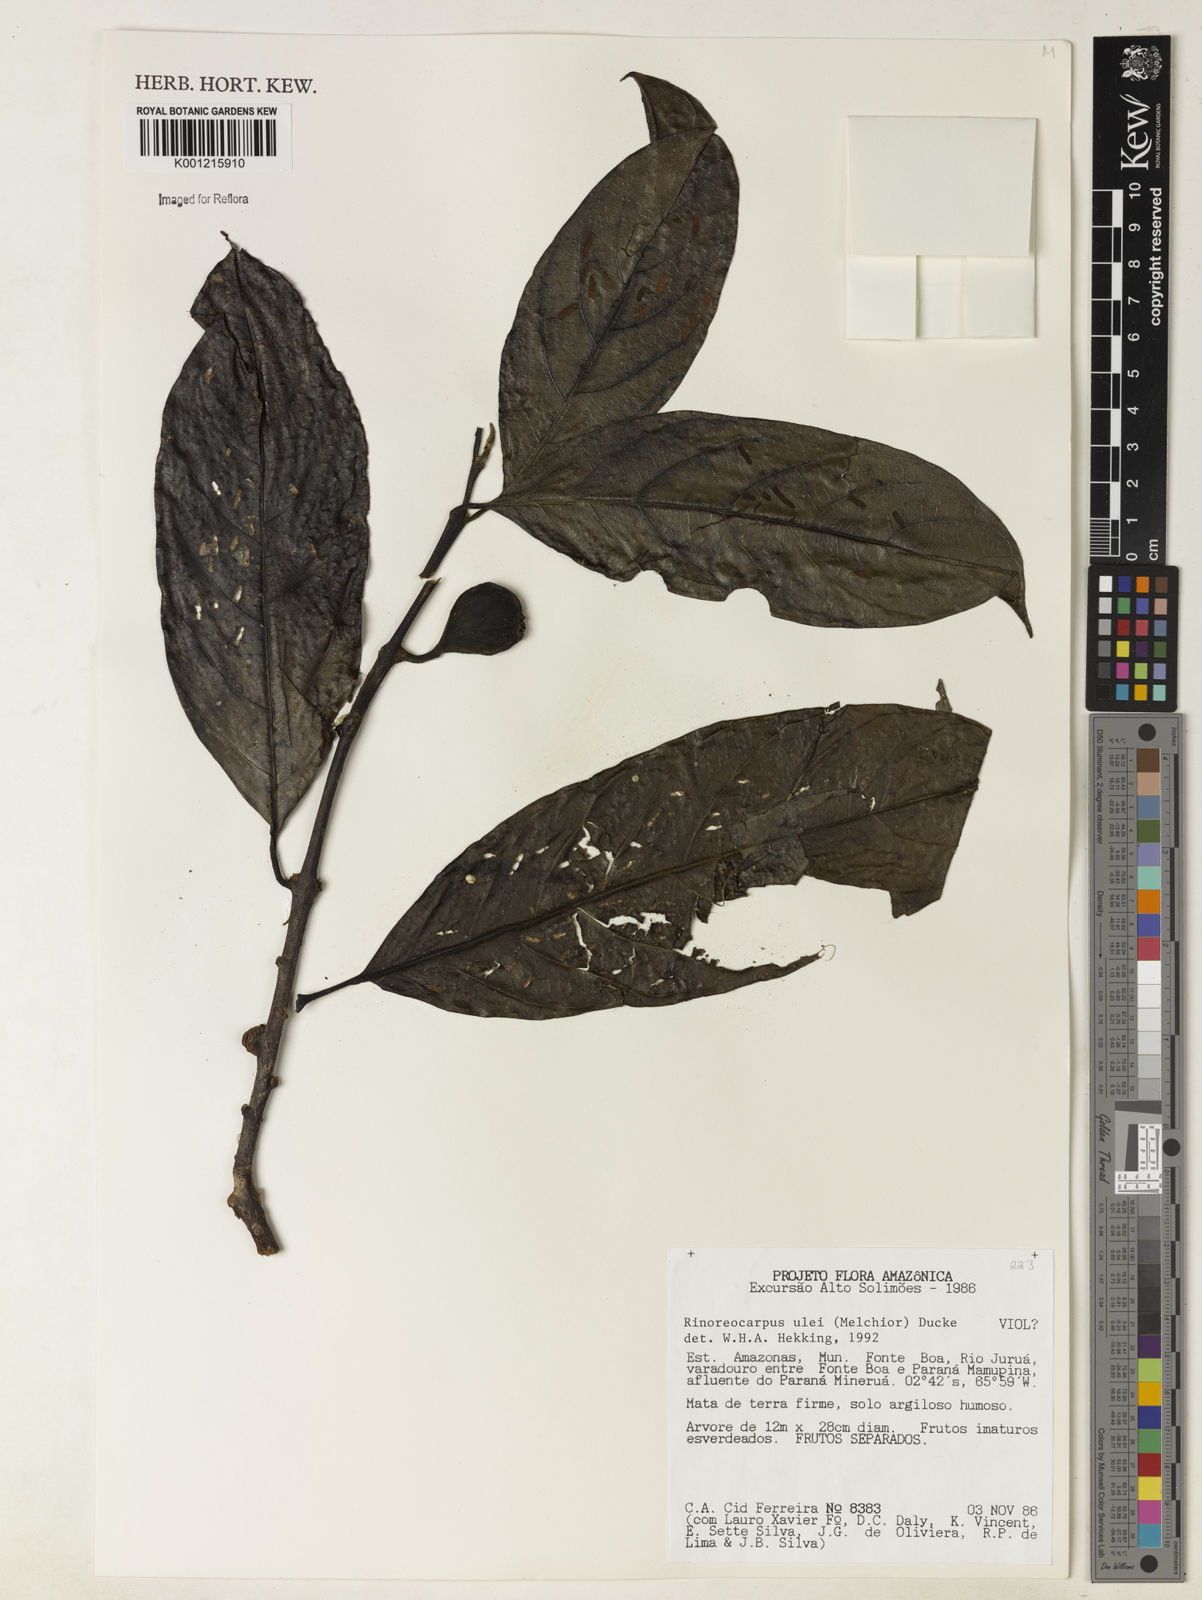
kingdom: Plantae
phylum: Tracheophyta
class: Magnoliopsida
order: Malpighiales
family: Violaceae
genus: Rinorea
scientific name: Rinorea
